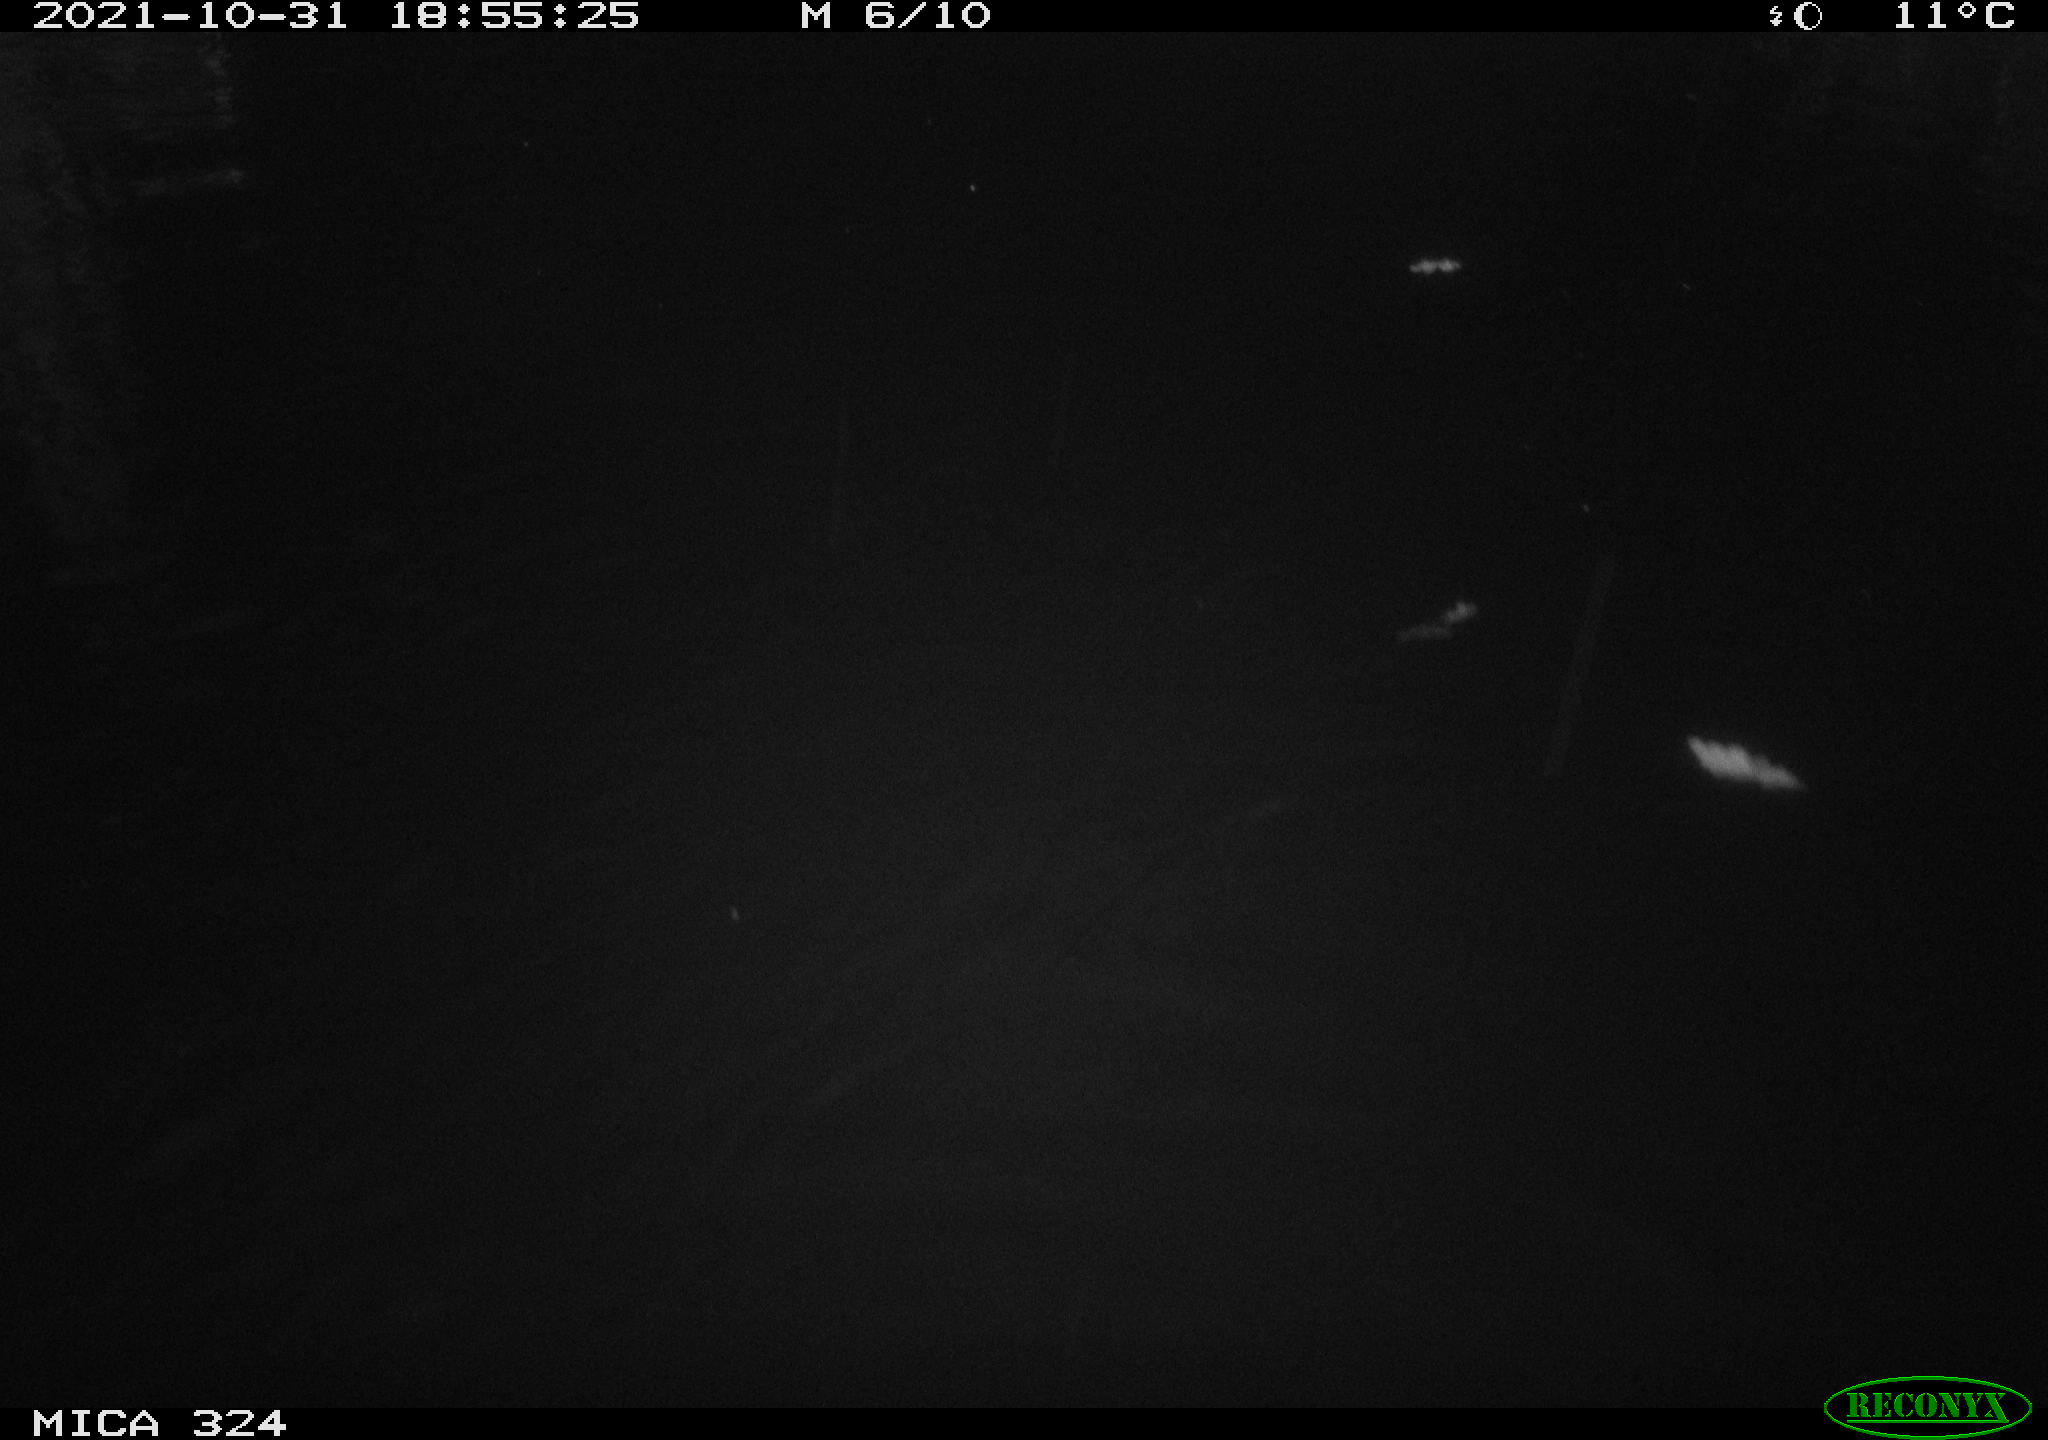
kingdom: Animalia
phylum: Chordata
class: Mammalia
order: Rodentia
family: Cricetidae
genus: Ondatra
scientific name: Ondatra zibethicus
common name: Muskrat
